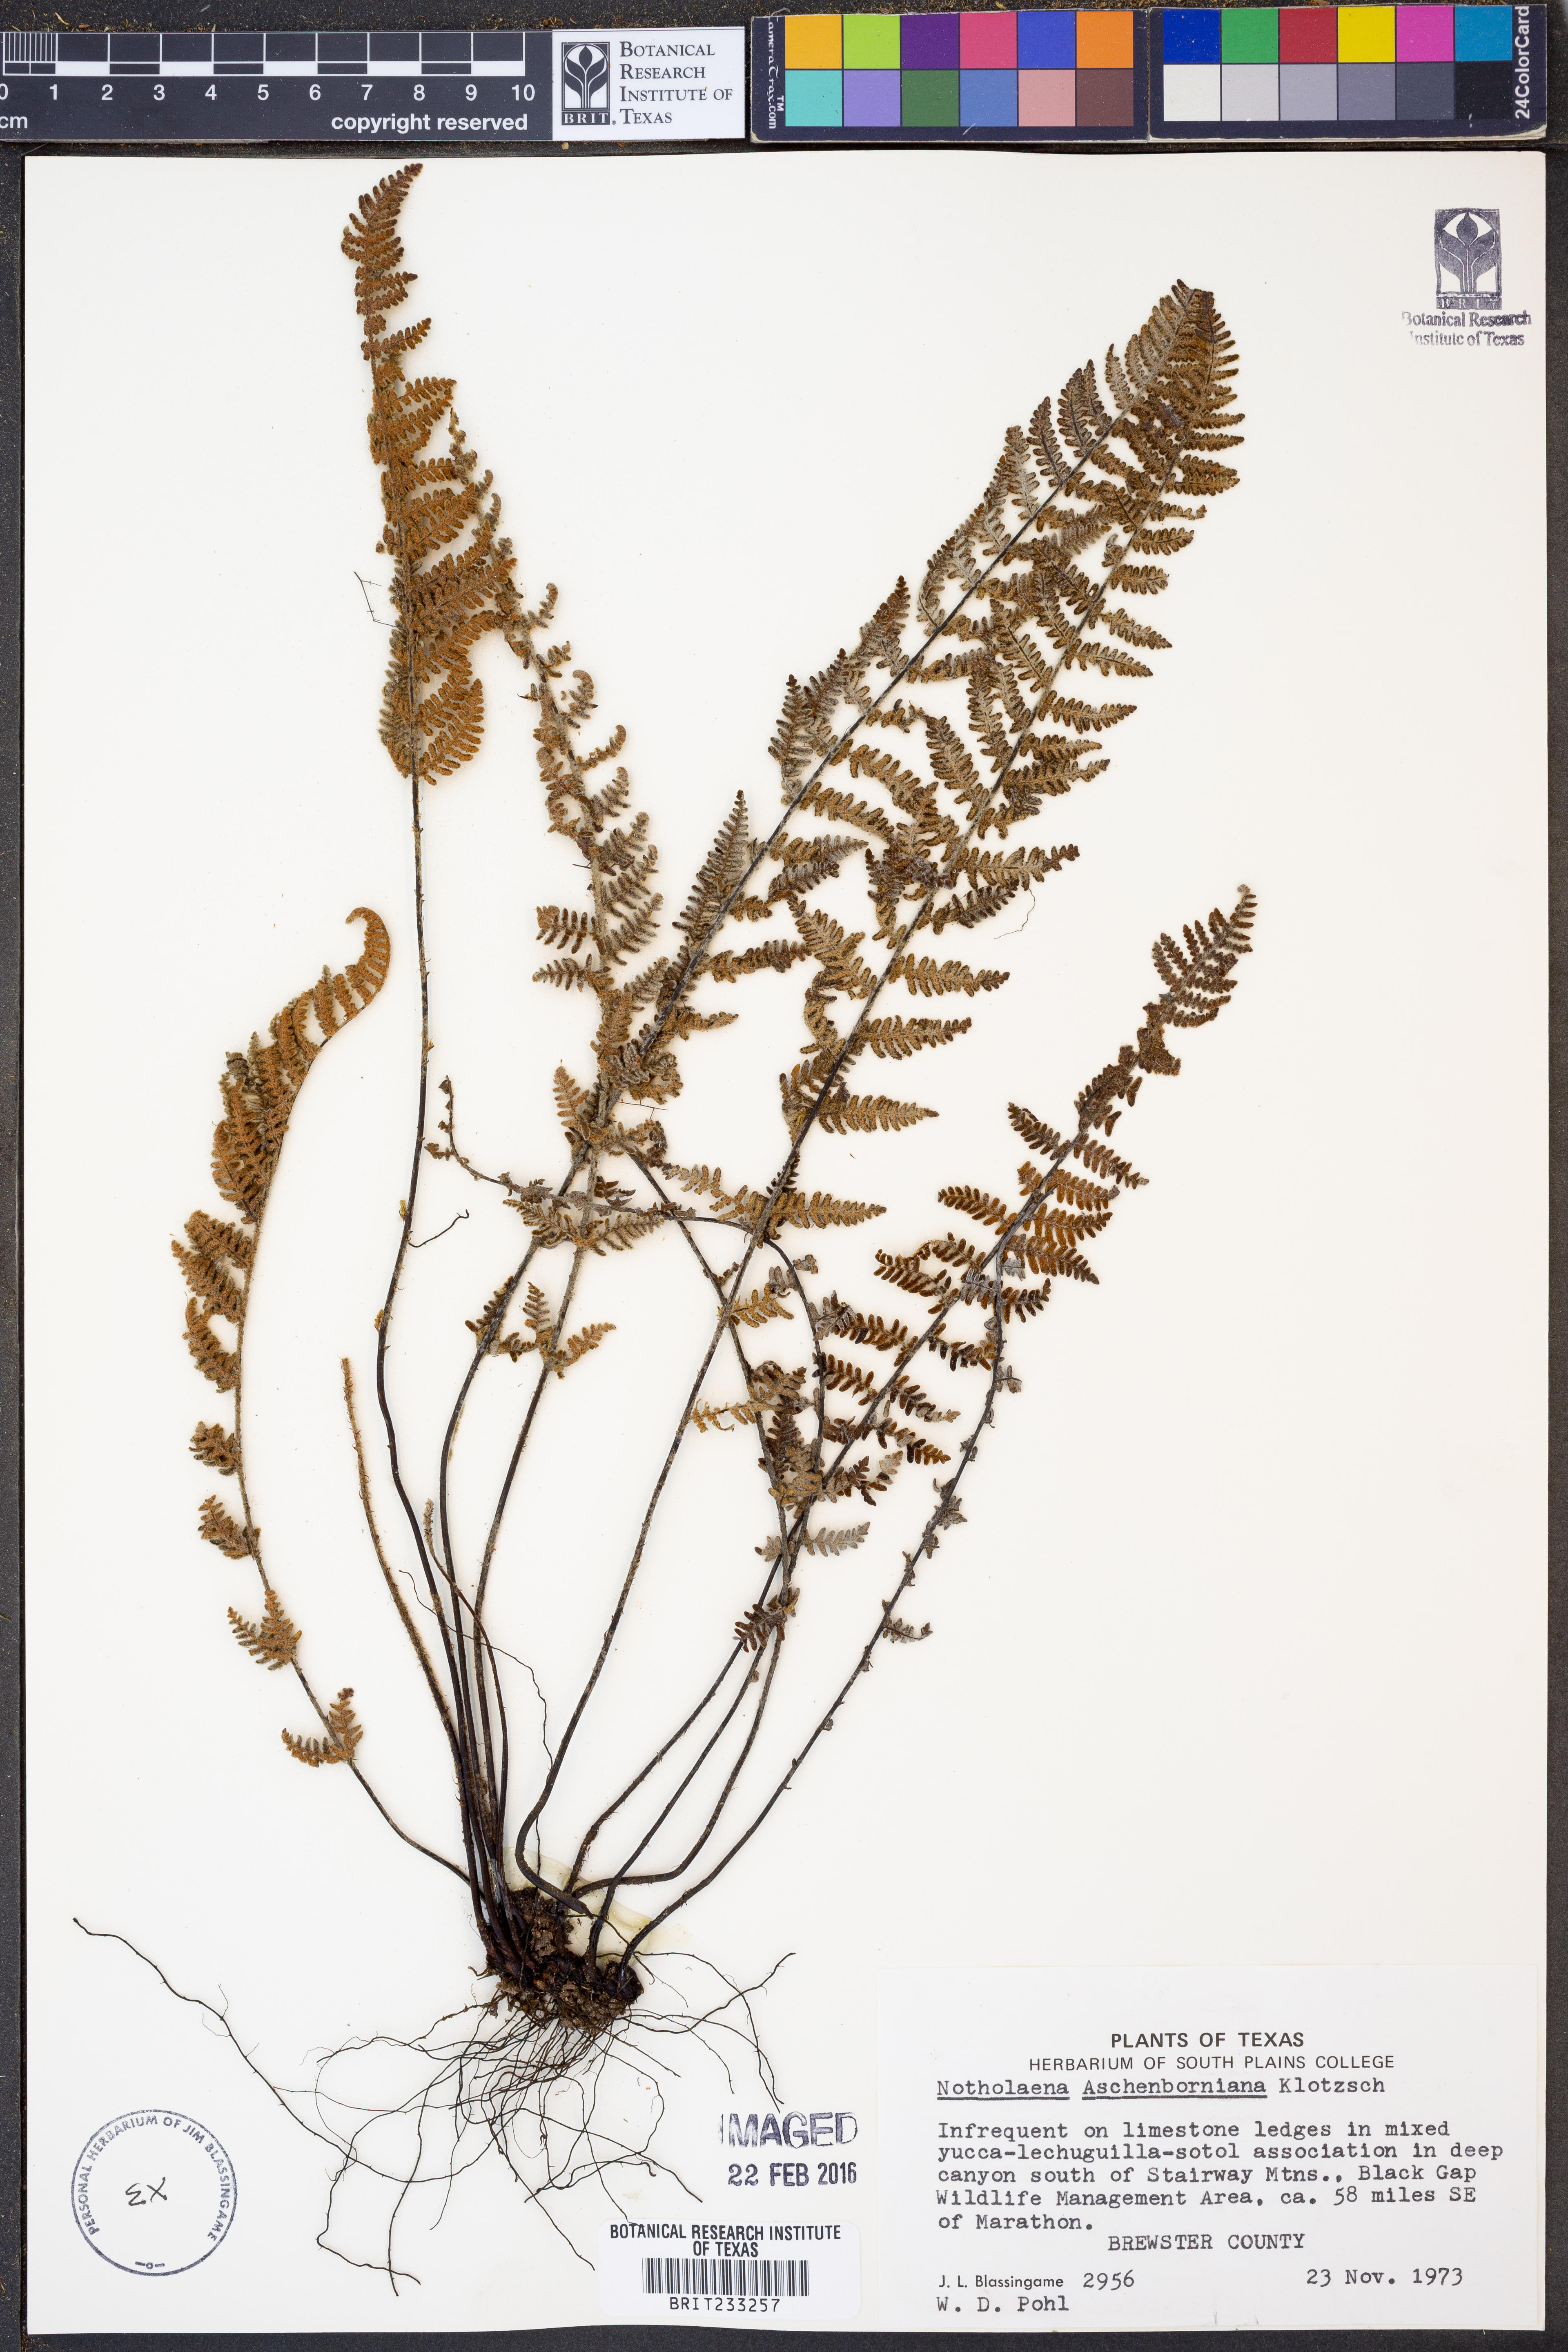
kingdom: Plantae
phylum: Tracheophyta
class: Polypodiopsida
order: Polypodiales
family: Pteridaceae
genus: Notholaena
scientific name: Notholaena aschenborniana
